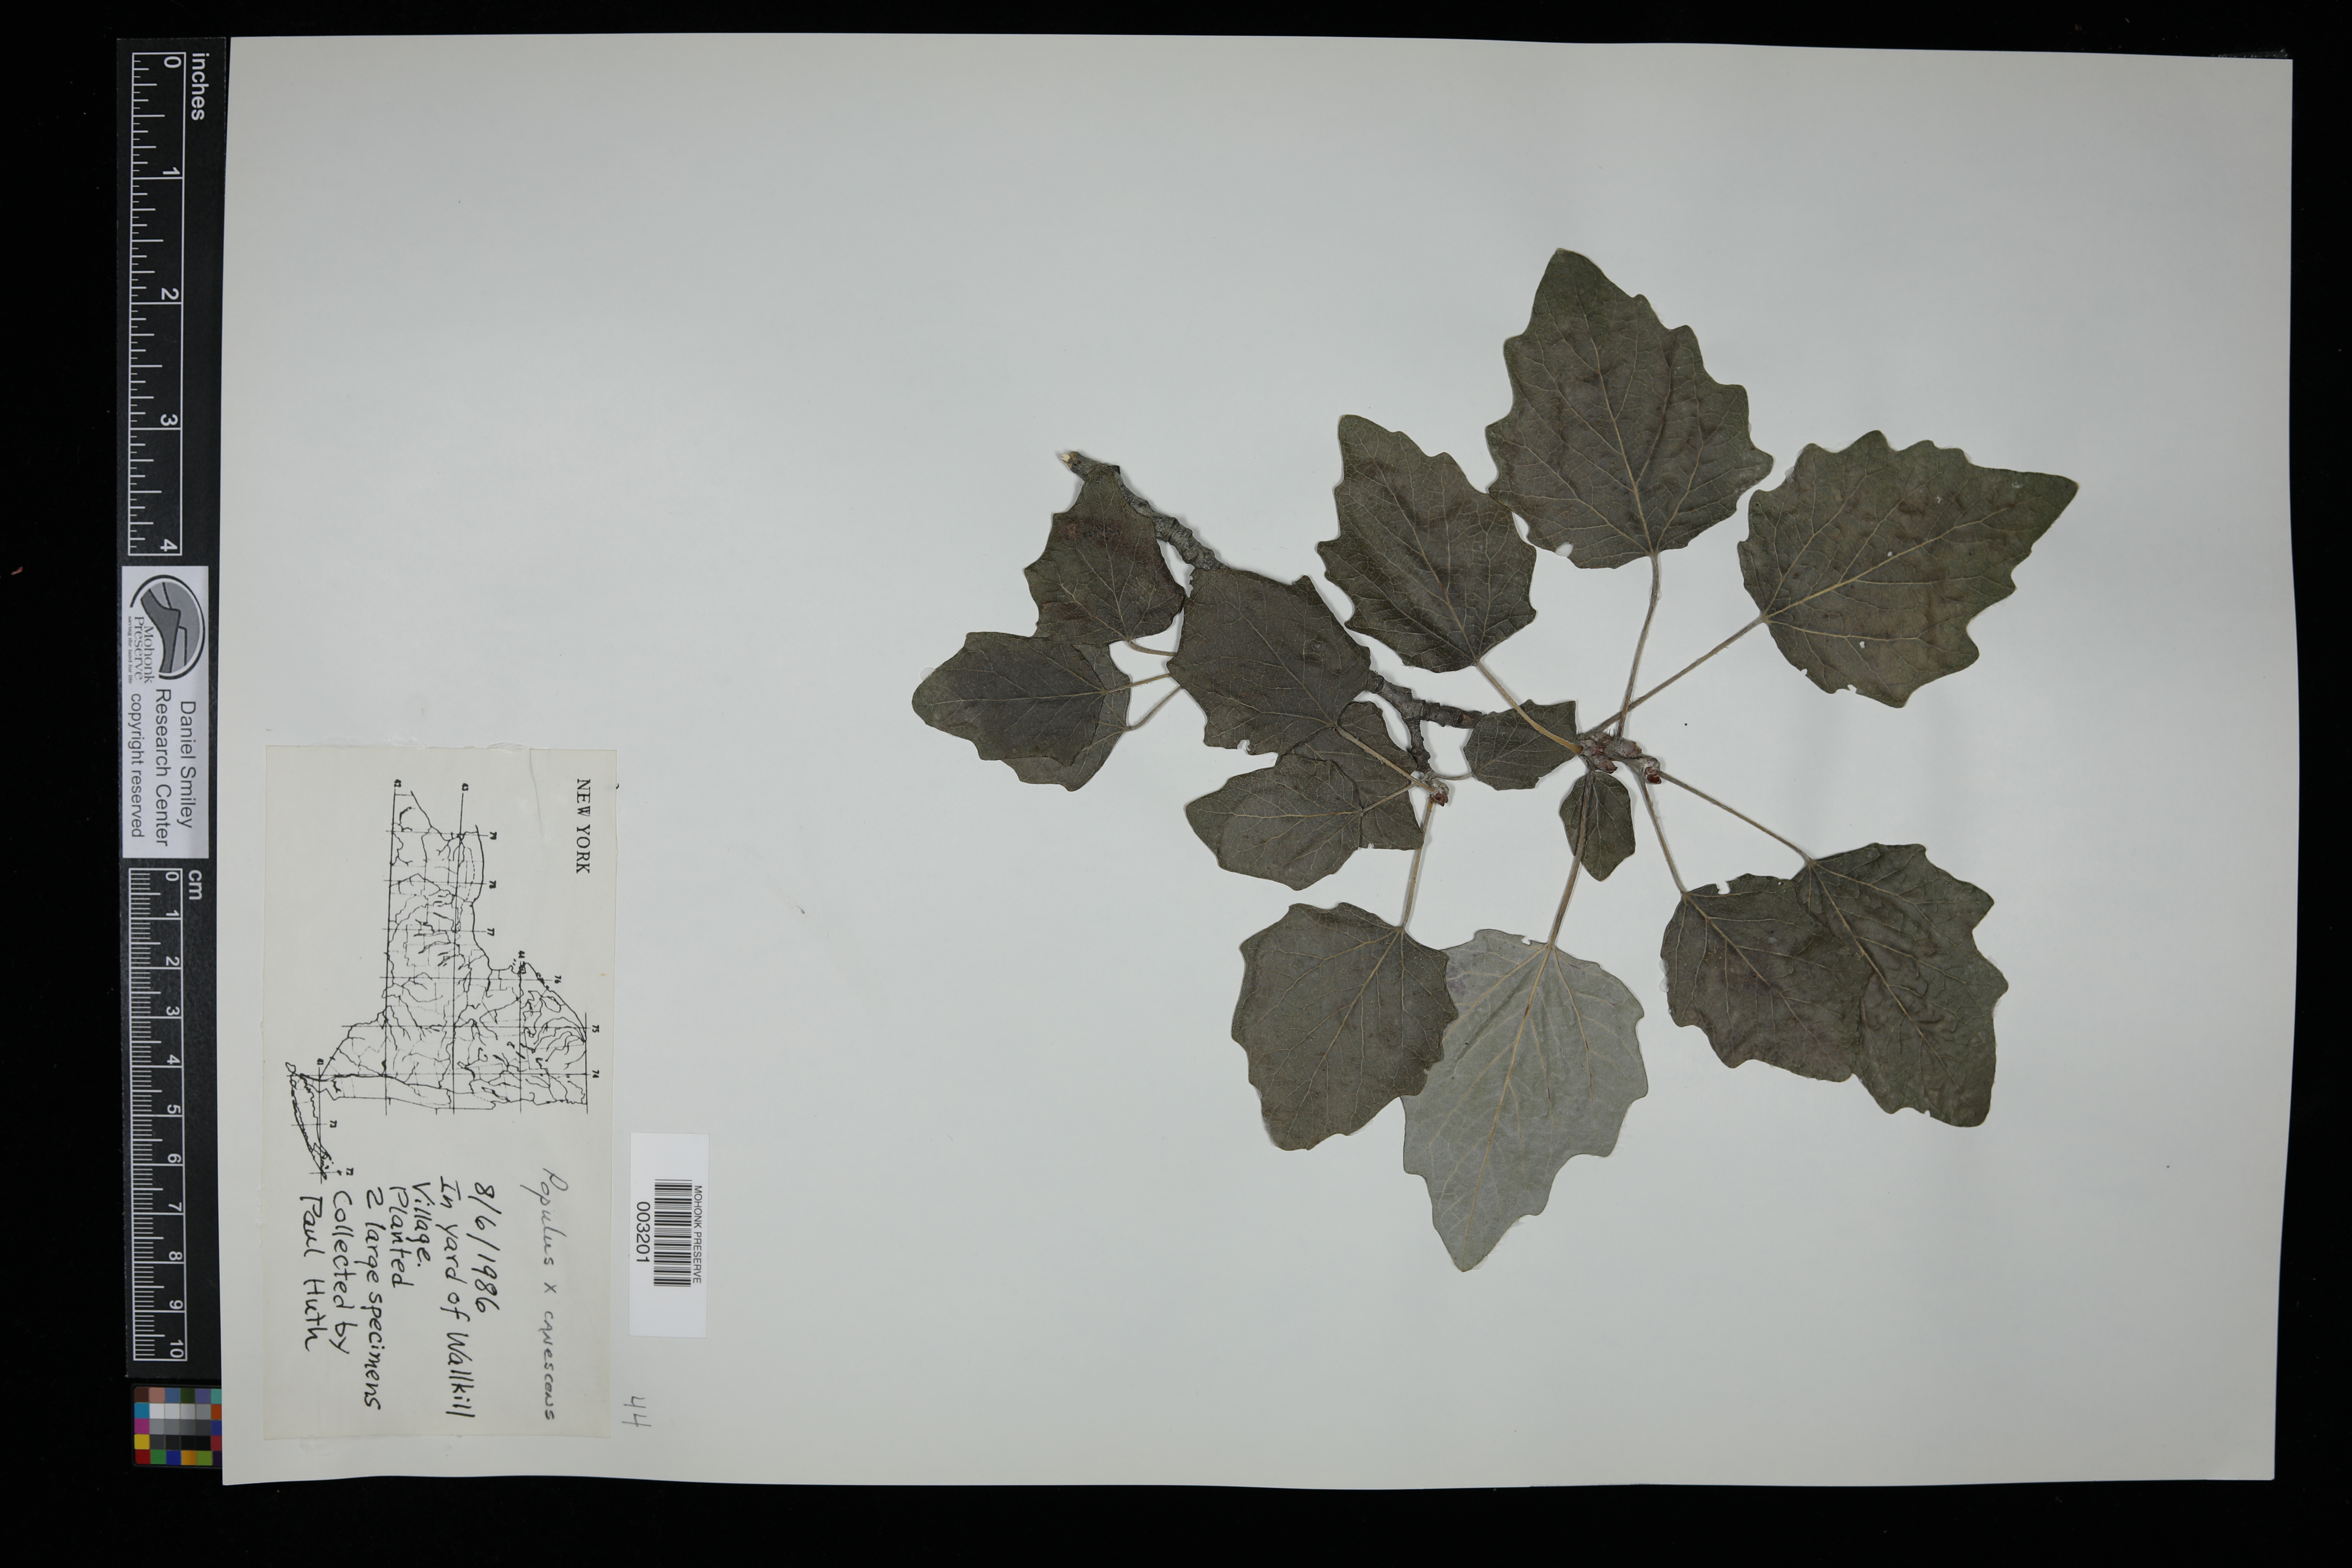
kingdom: Plantae
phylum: Tracheophyta
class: Magnoliopsida
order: Malpighiales
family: Salicaceae
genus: Populus
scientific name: Populus canescens
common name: Gray poplar
